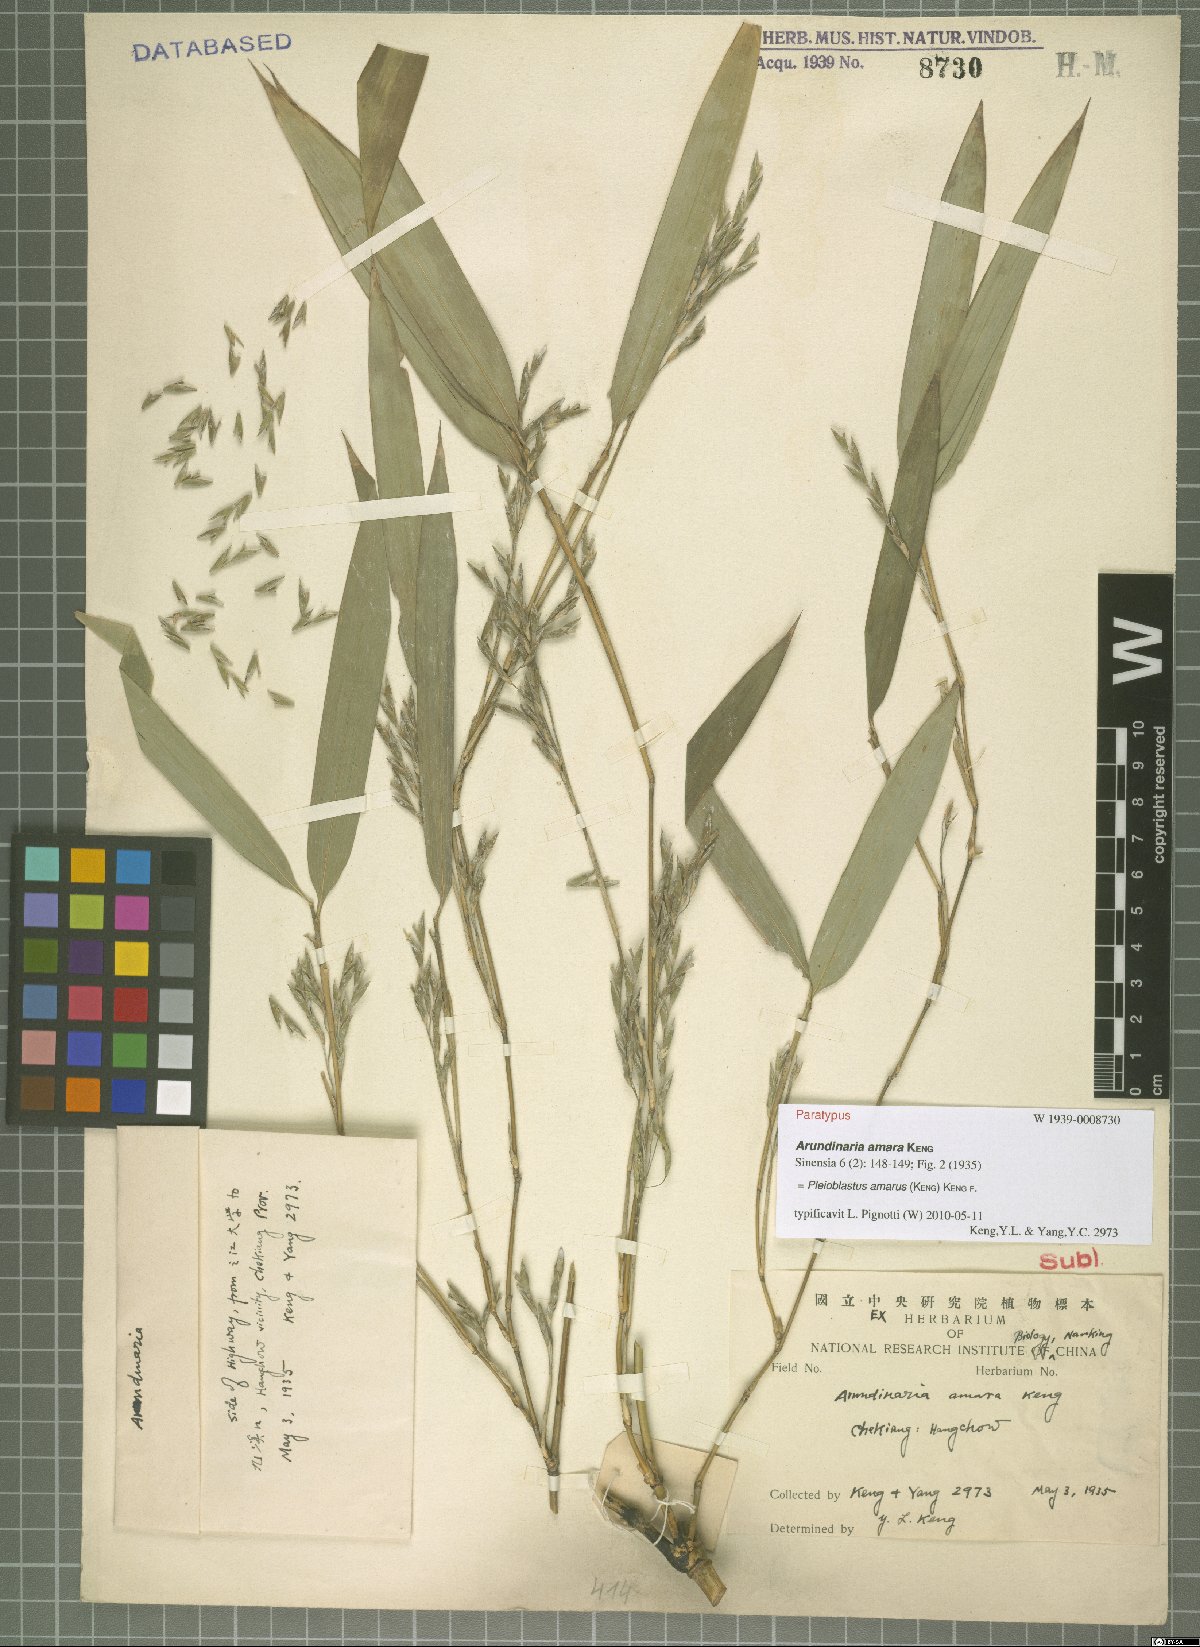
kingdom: Plantae
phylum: Tracheophyta
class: Liliopsida
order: Poales
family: Poaceae
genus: Pleioblastus
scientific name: Pleioblastus amarus
